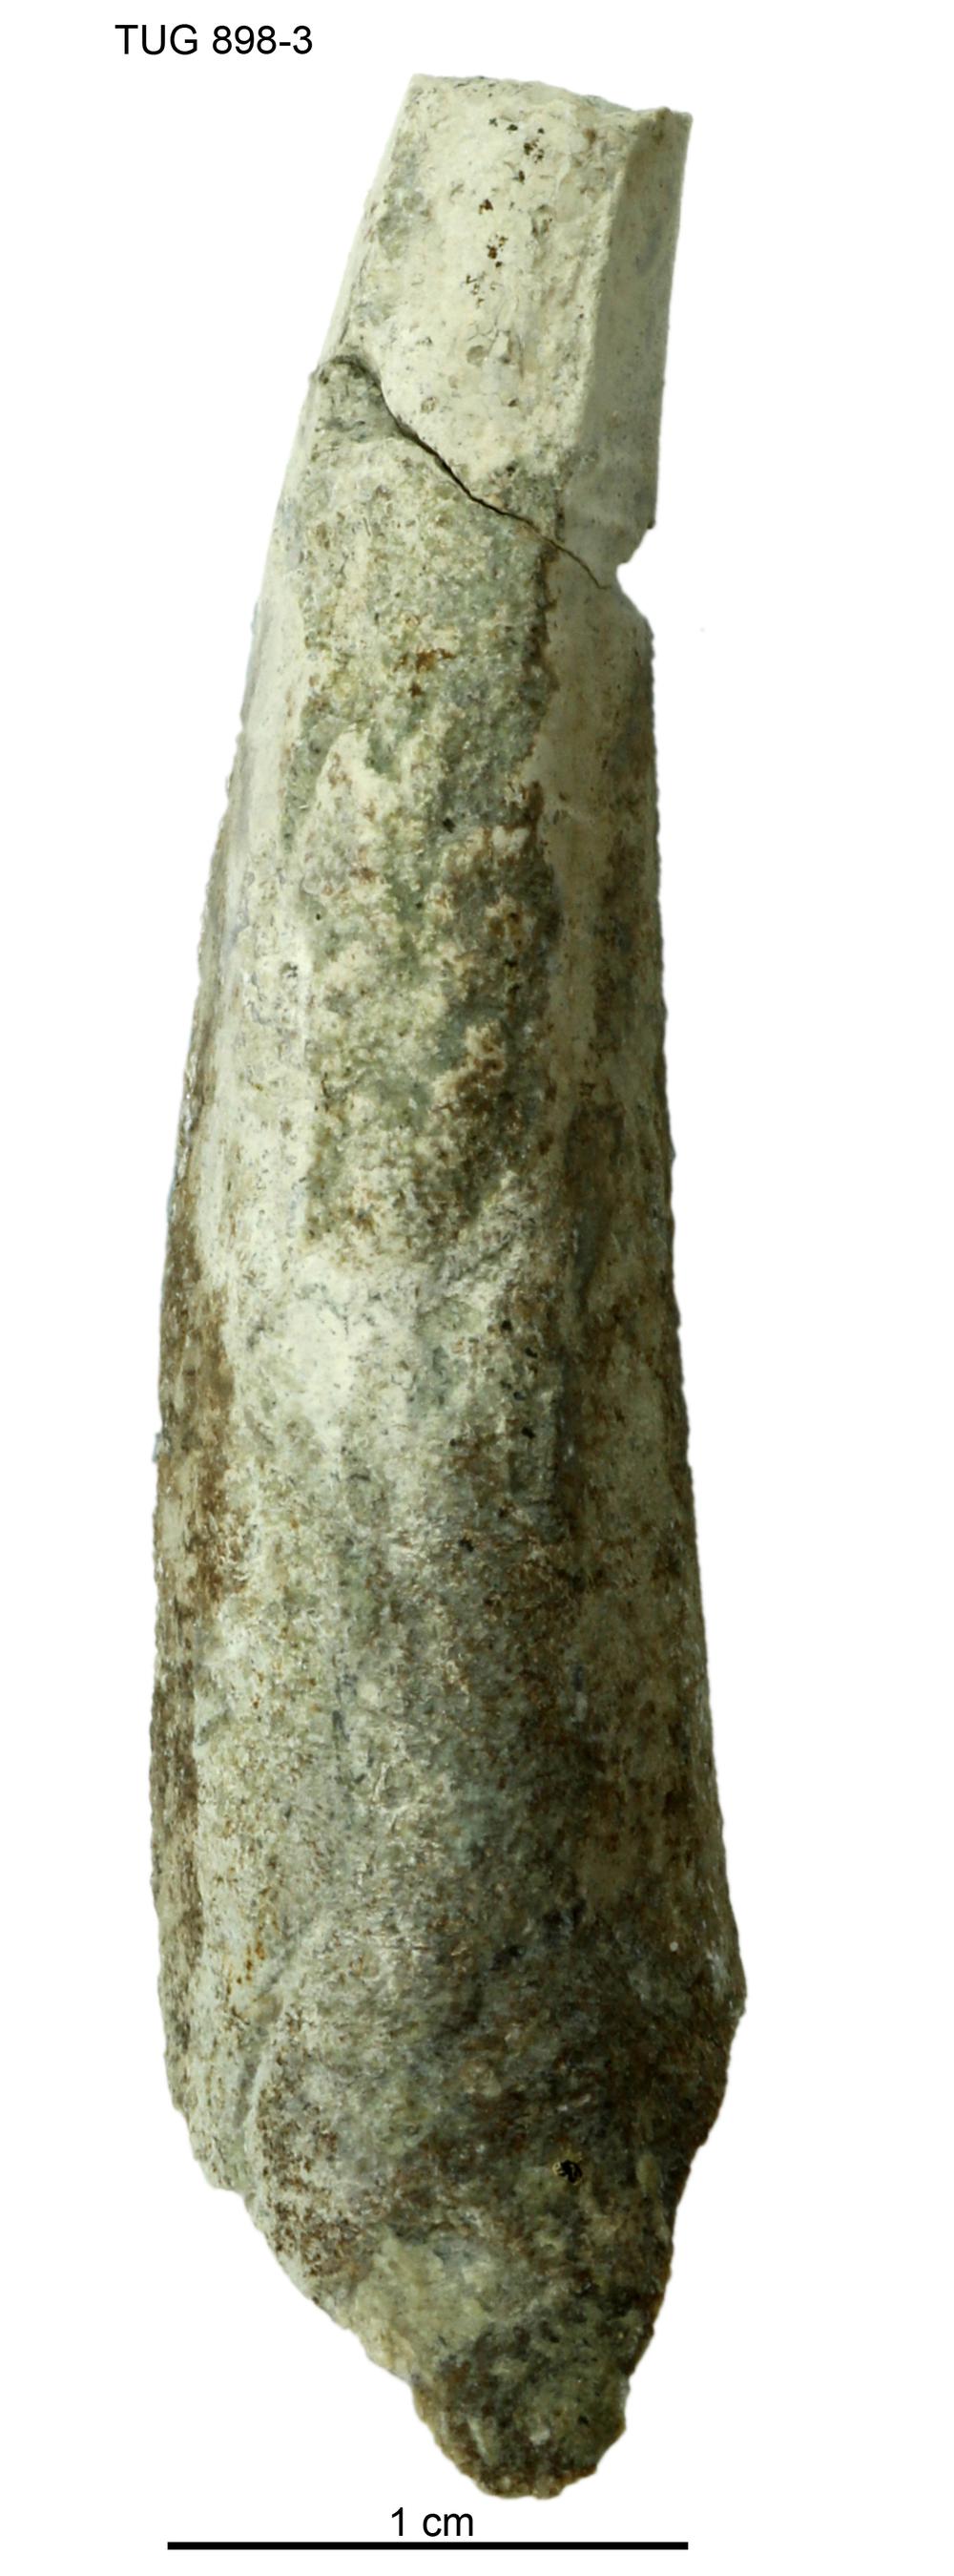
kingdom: Animalia
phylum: Annelida
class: Polychaeta
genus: Hyolithes
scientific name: Hyolithes
